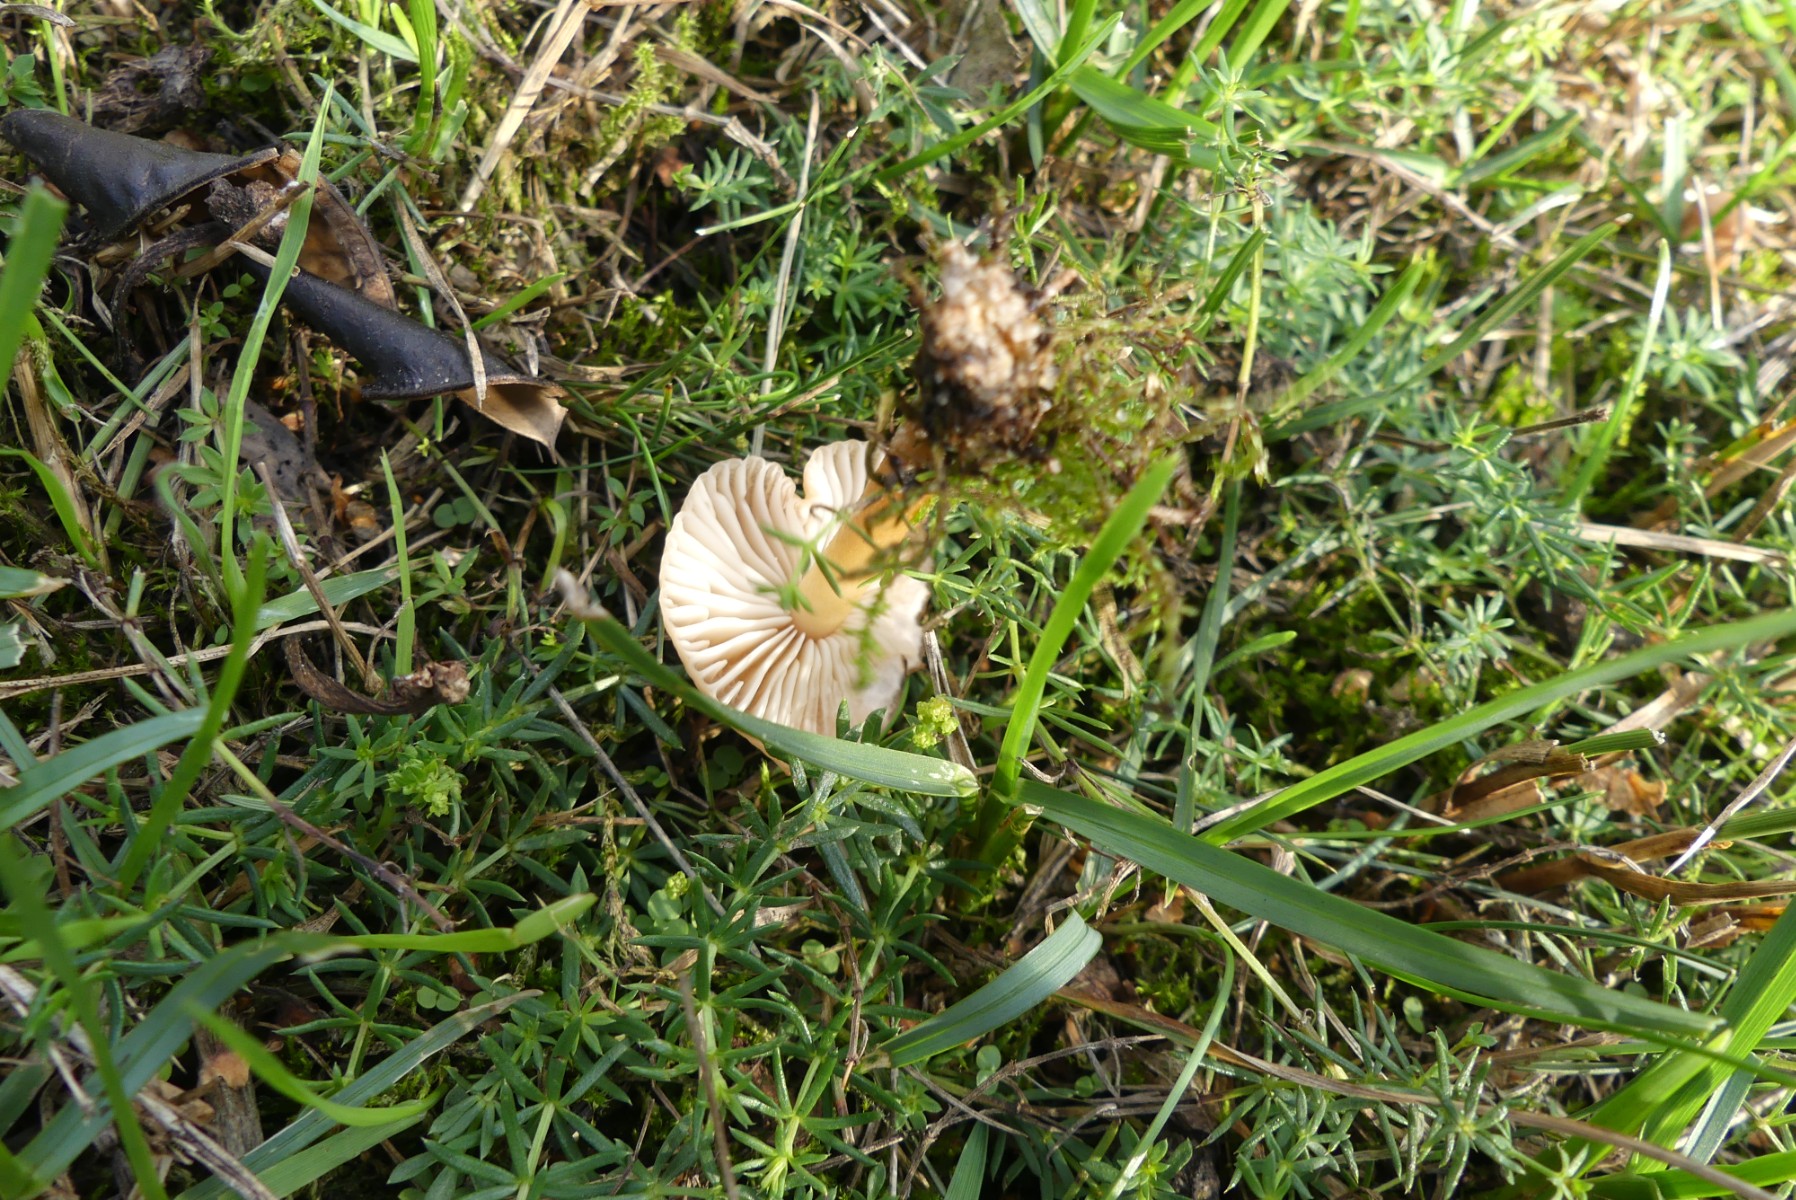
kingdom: Fungi
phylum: Basidiomycota
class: Agaricomycetes
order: Agaricales
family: Marasmiaceae
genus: Marasmius
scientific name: Marasmius oreades
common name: elledans-bruskhat
